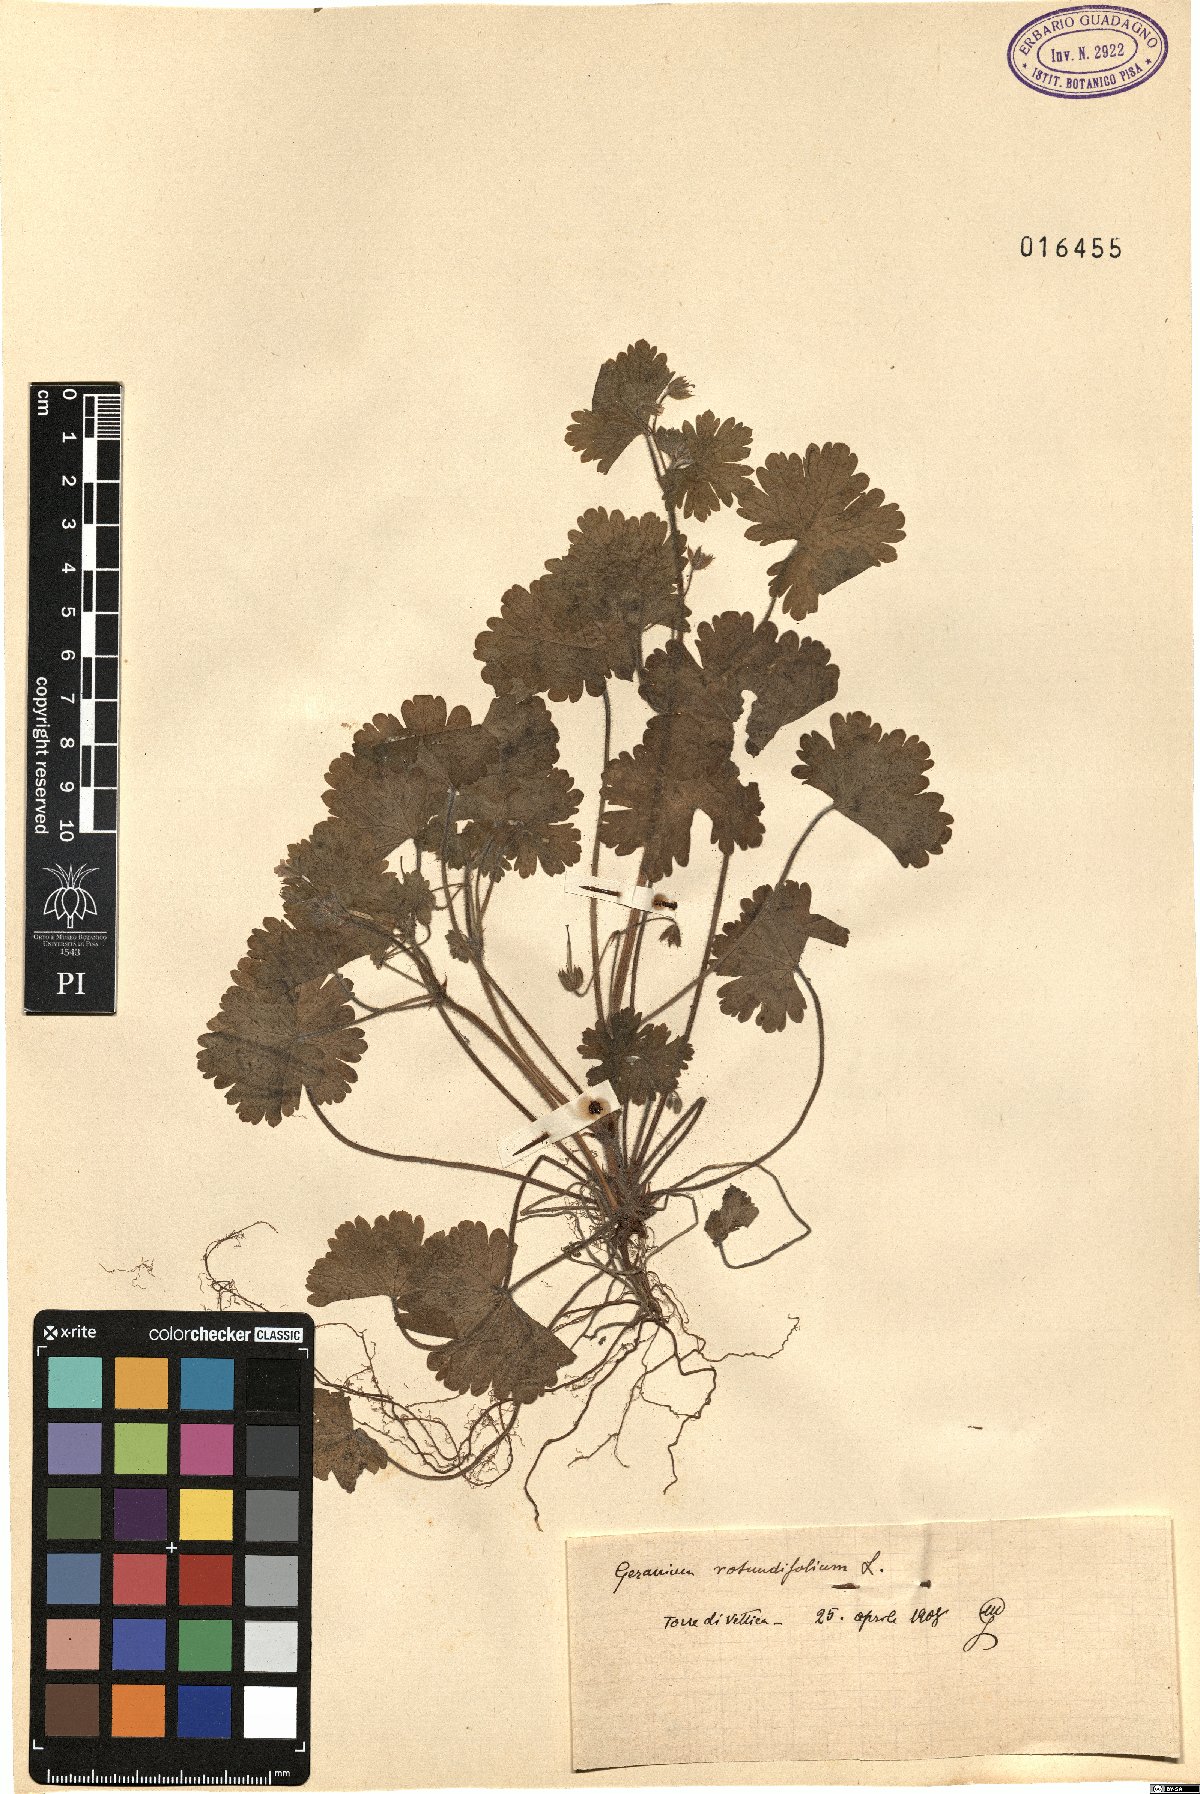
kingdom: Plantae
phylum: Tracheophyta
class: Magnoliopsida
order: Geraniales
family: Geraniaceae
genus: Geranium
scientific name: Geranium rotundifolium
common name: Round-leaved crane's-bill
